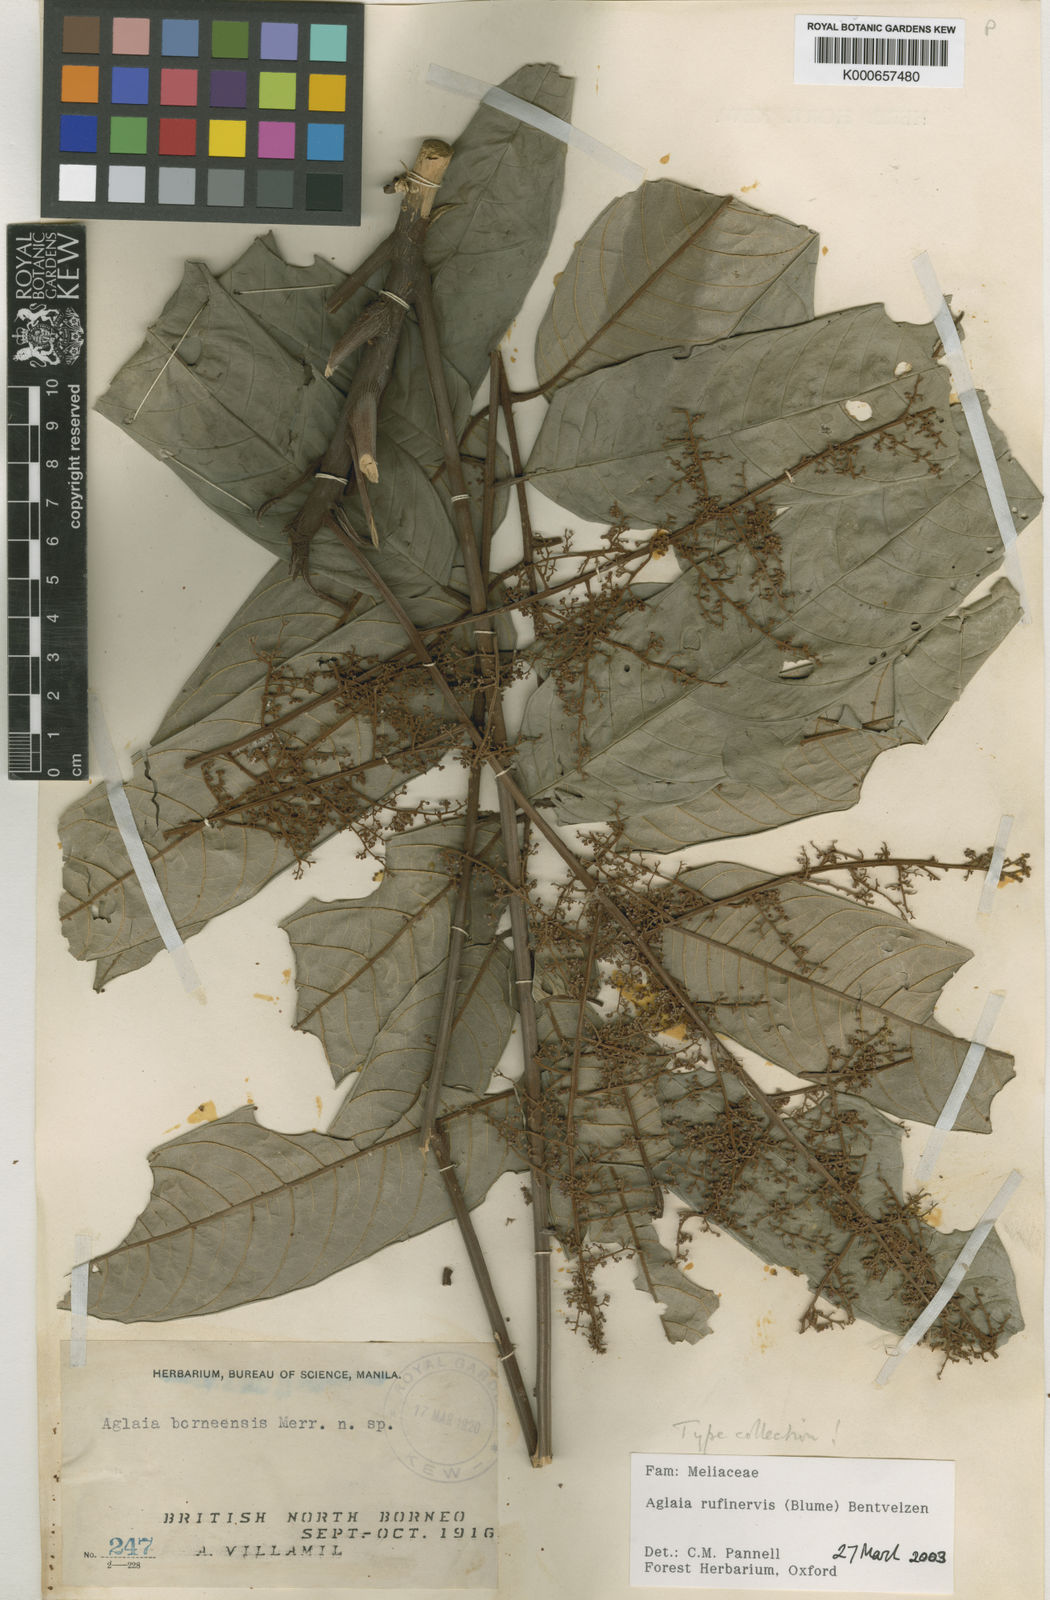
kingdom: Plantae
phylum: Tracheophyta
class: Magnoliopsida
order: Sapindales
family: Meliaceae
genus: Aglaia
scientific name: Aglaia rufinervis
